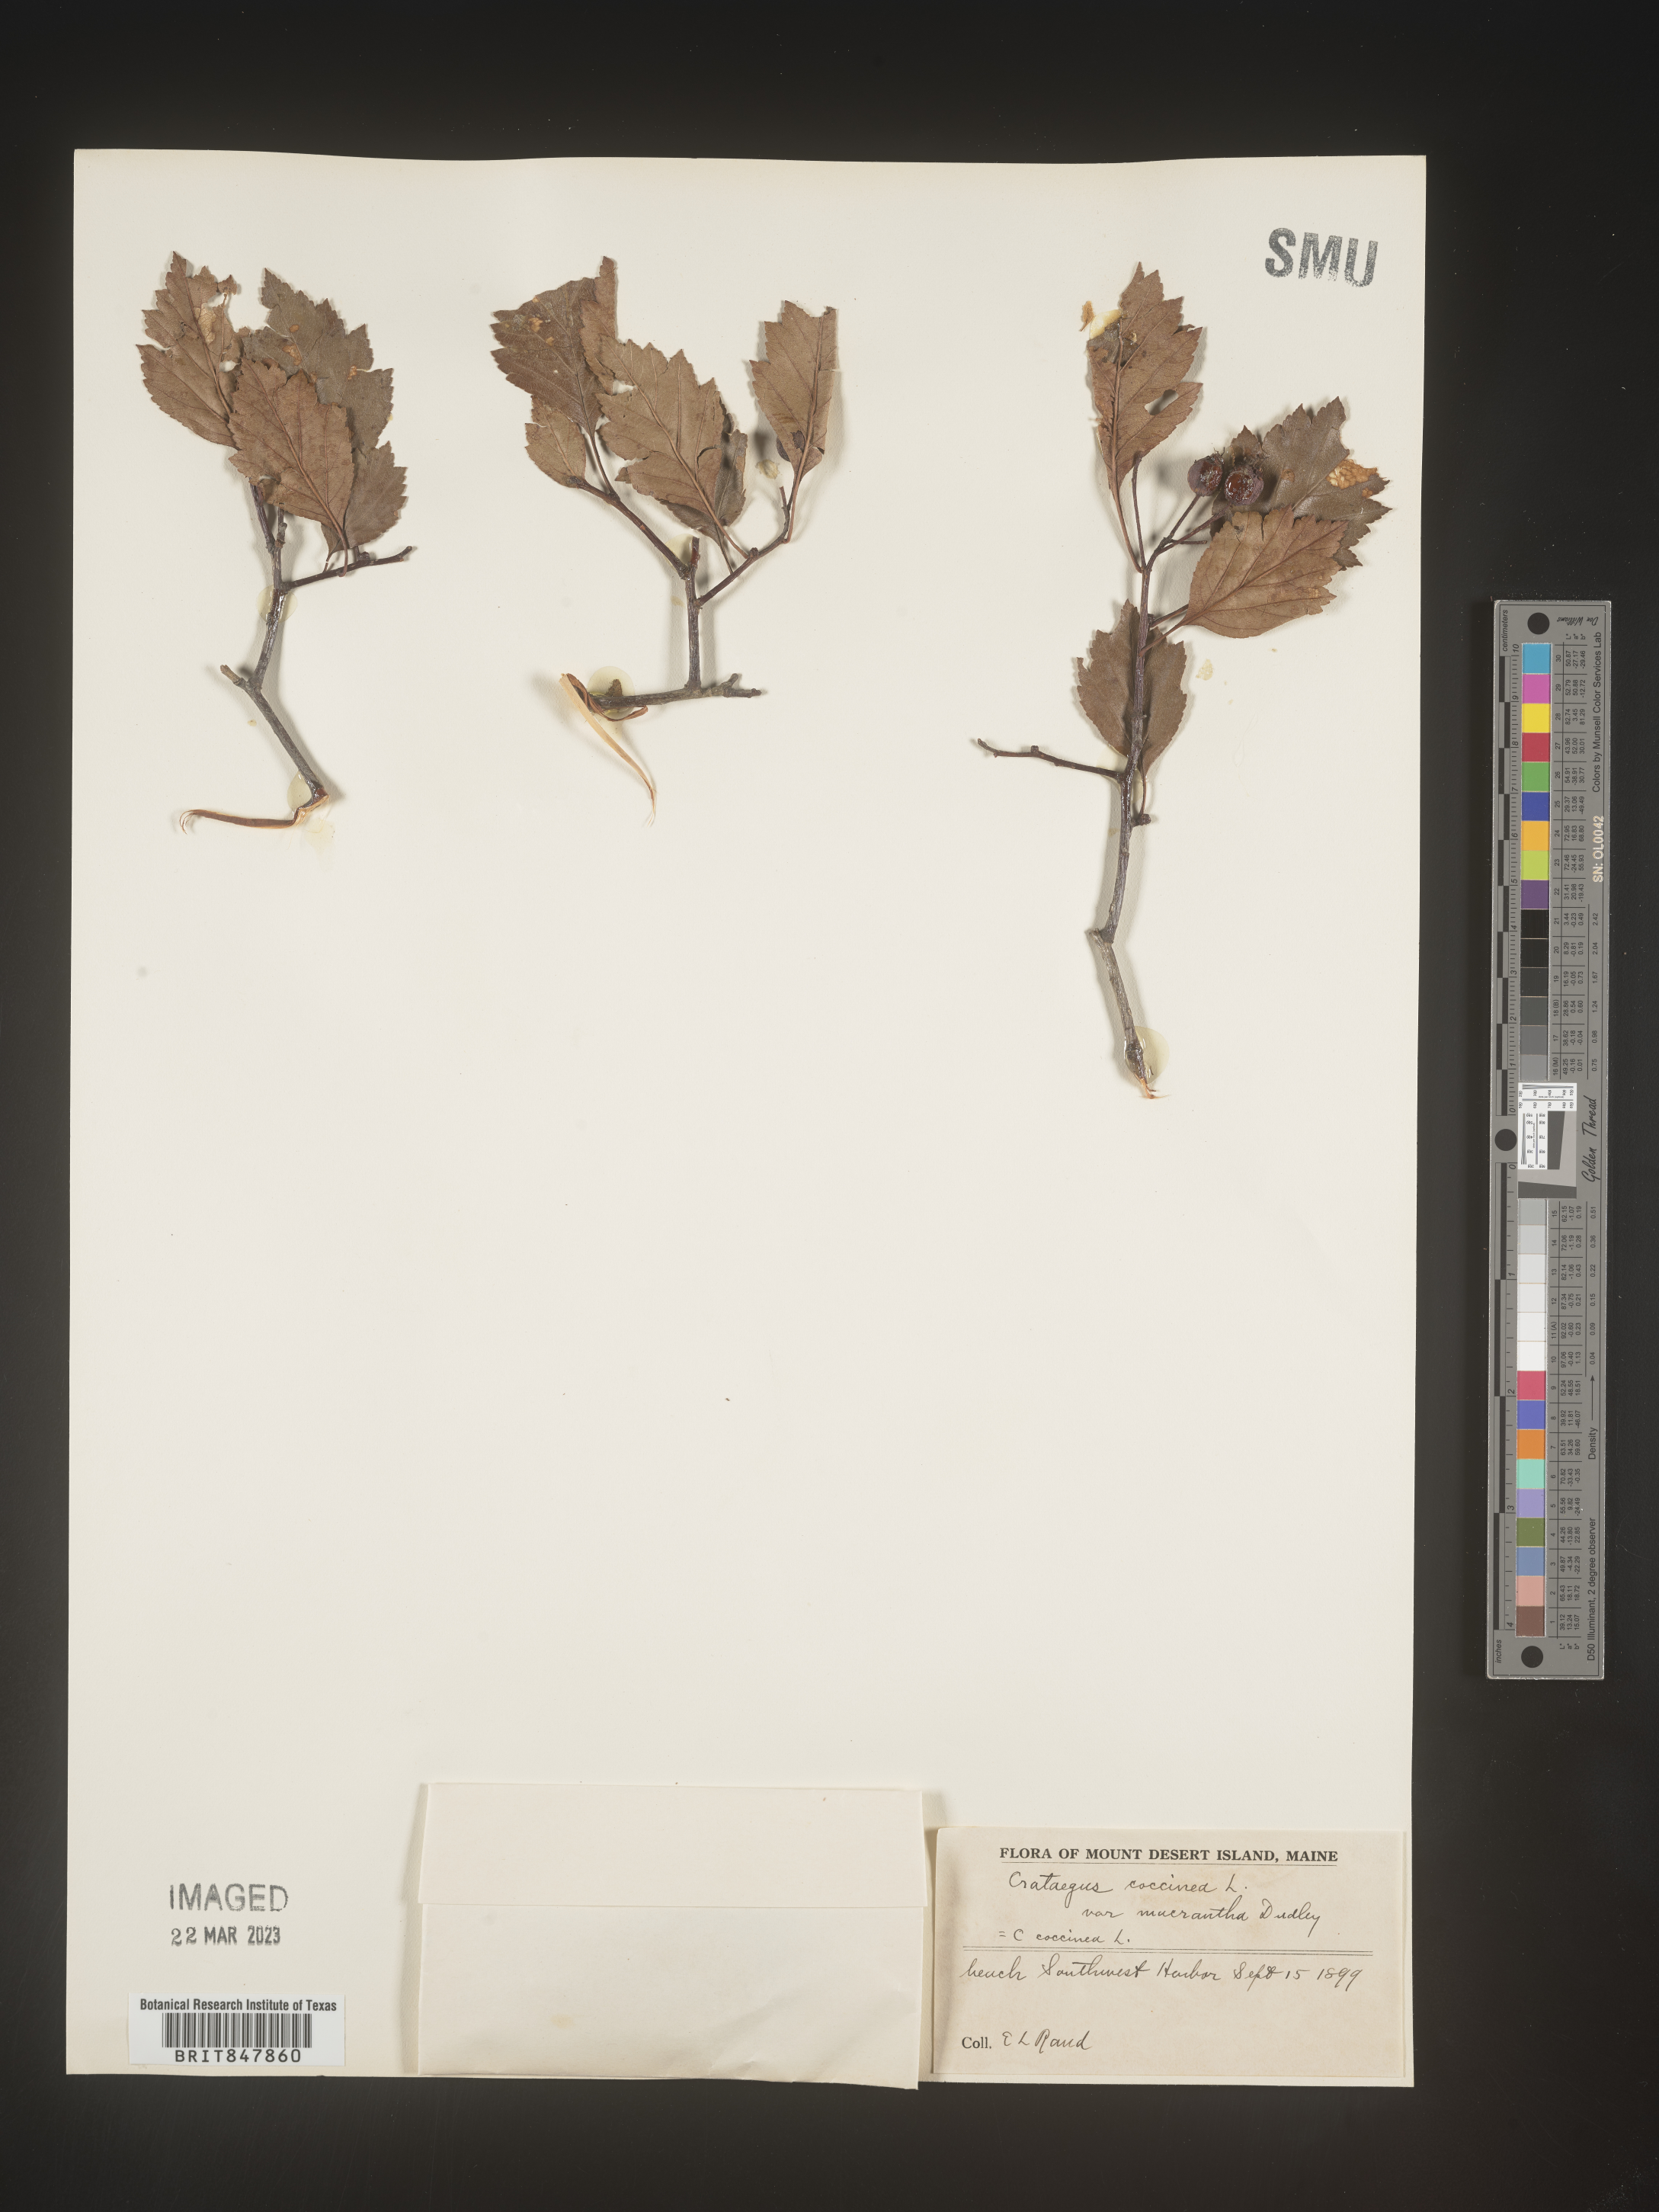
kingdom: Plantae
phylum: Tracheophyta
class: Magnoliopsida
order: Rosales
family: Rosaceae
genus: Crataegus
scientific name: Crataegus
